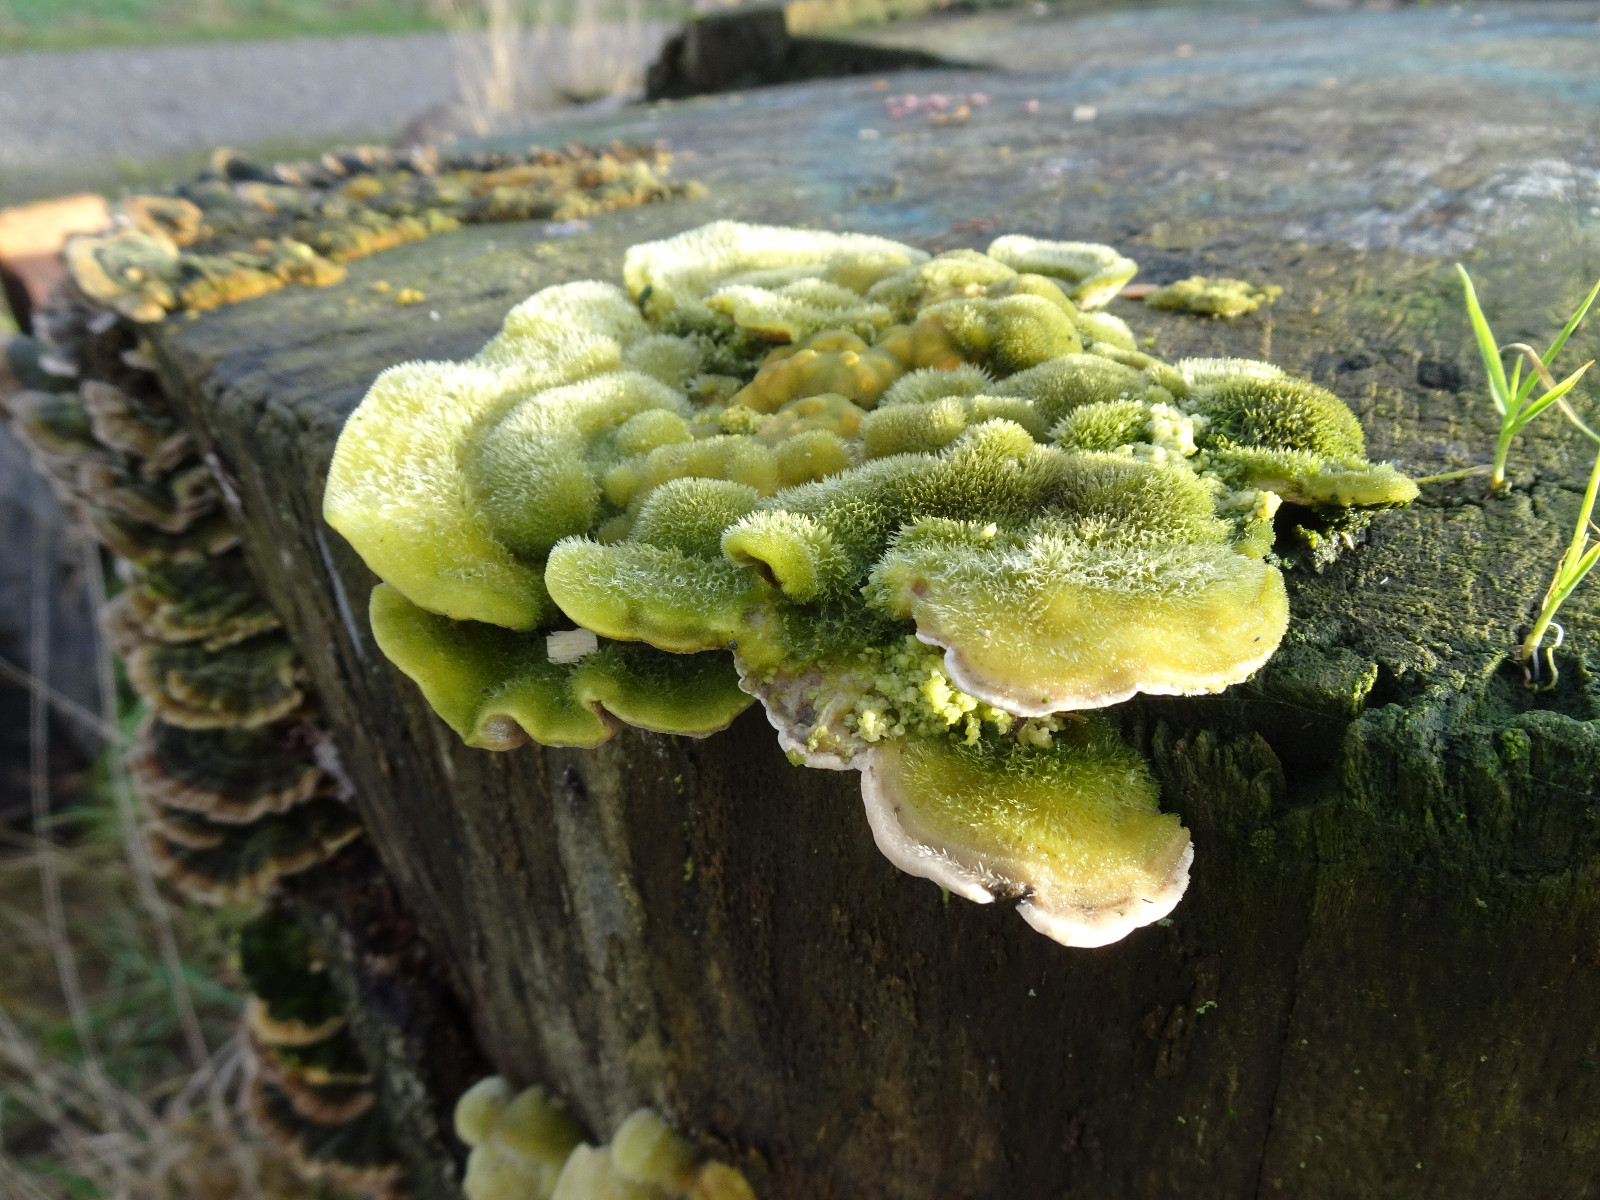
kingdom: Fungi
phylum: Basidiomycota
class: Agaricomycetes
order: Polyporales
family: Polyporaceae
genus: Trametes
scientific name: Trametes hirsuta
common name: håret læderporesvamp
